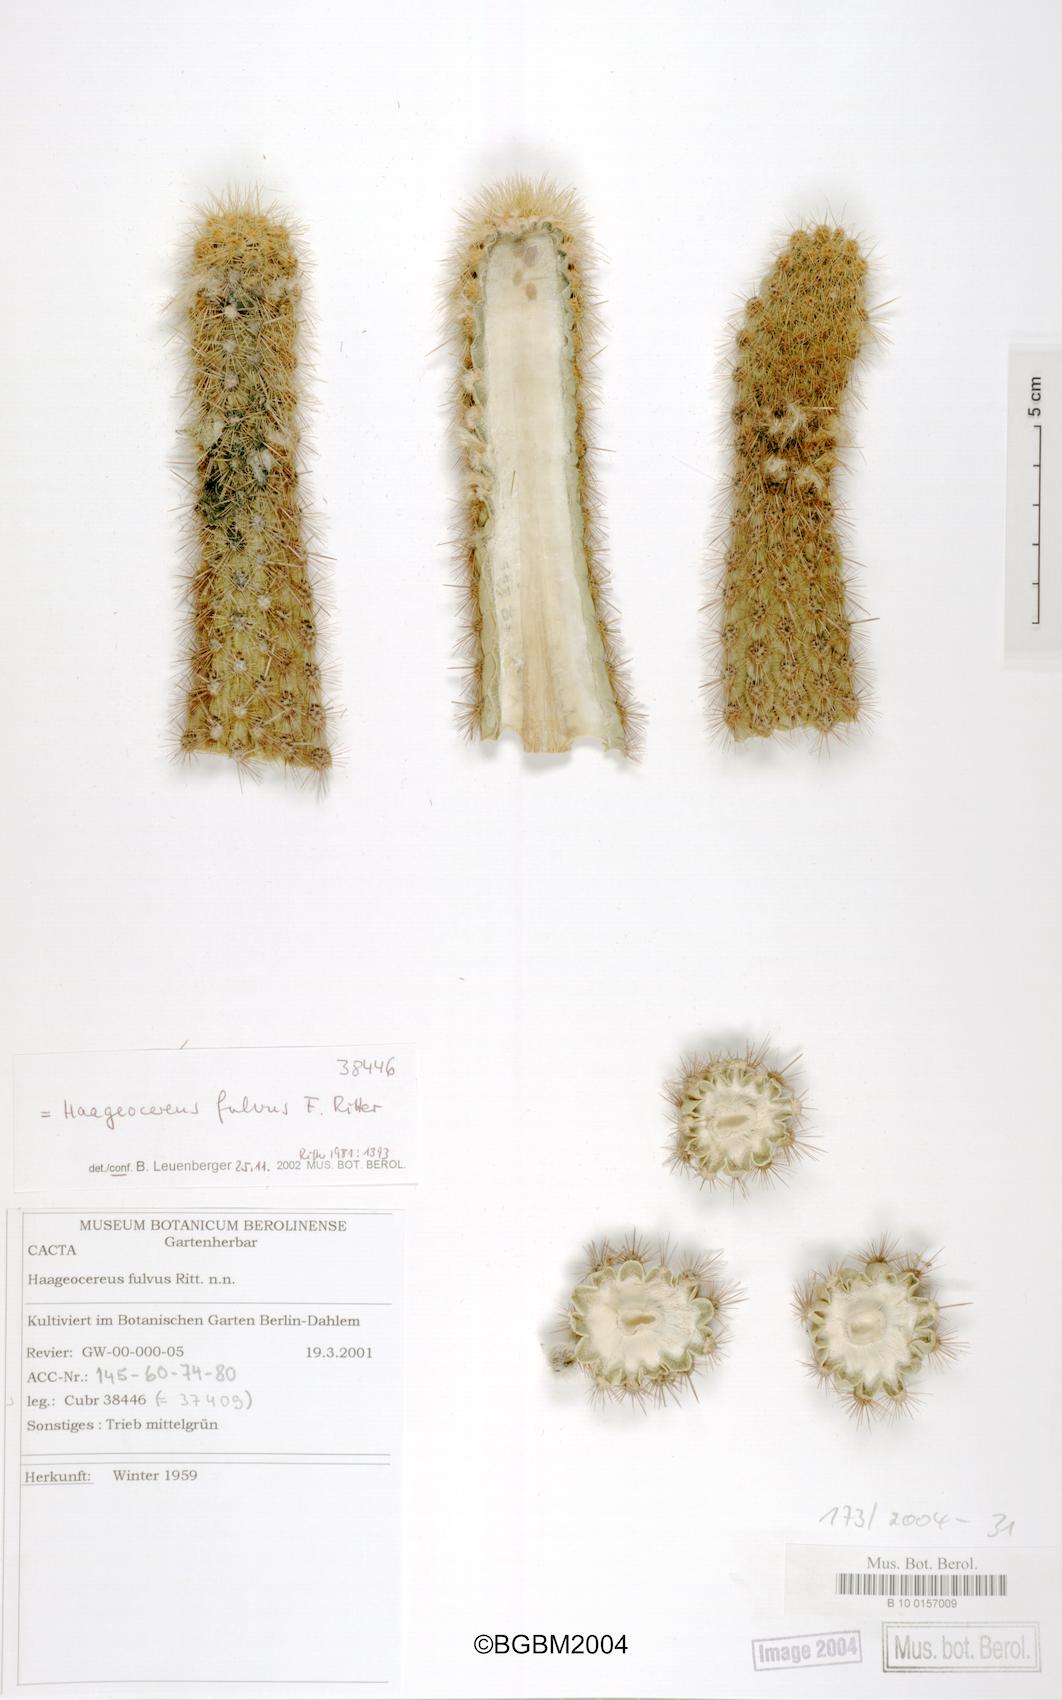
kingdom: Plantae
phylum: Tracheophyta
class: Magnoliopsida
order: Caryophyllales
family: Cactaceae
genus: Haageocereus
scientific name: Haageocereus acranthus
